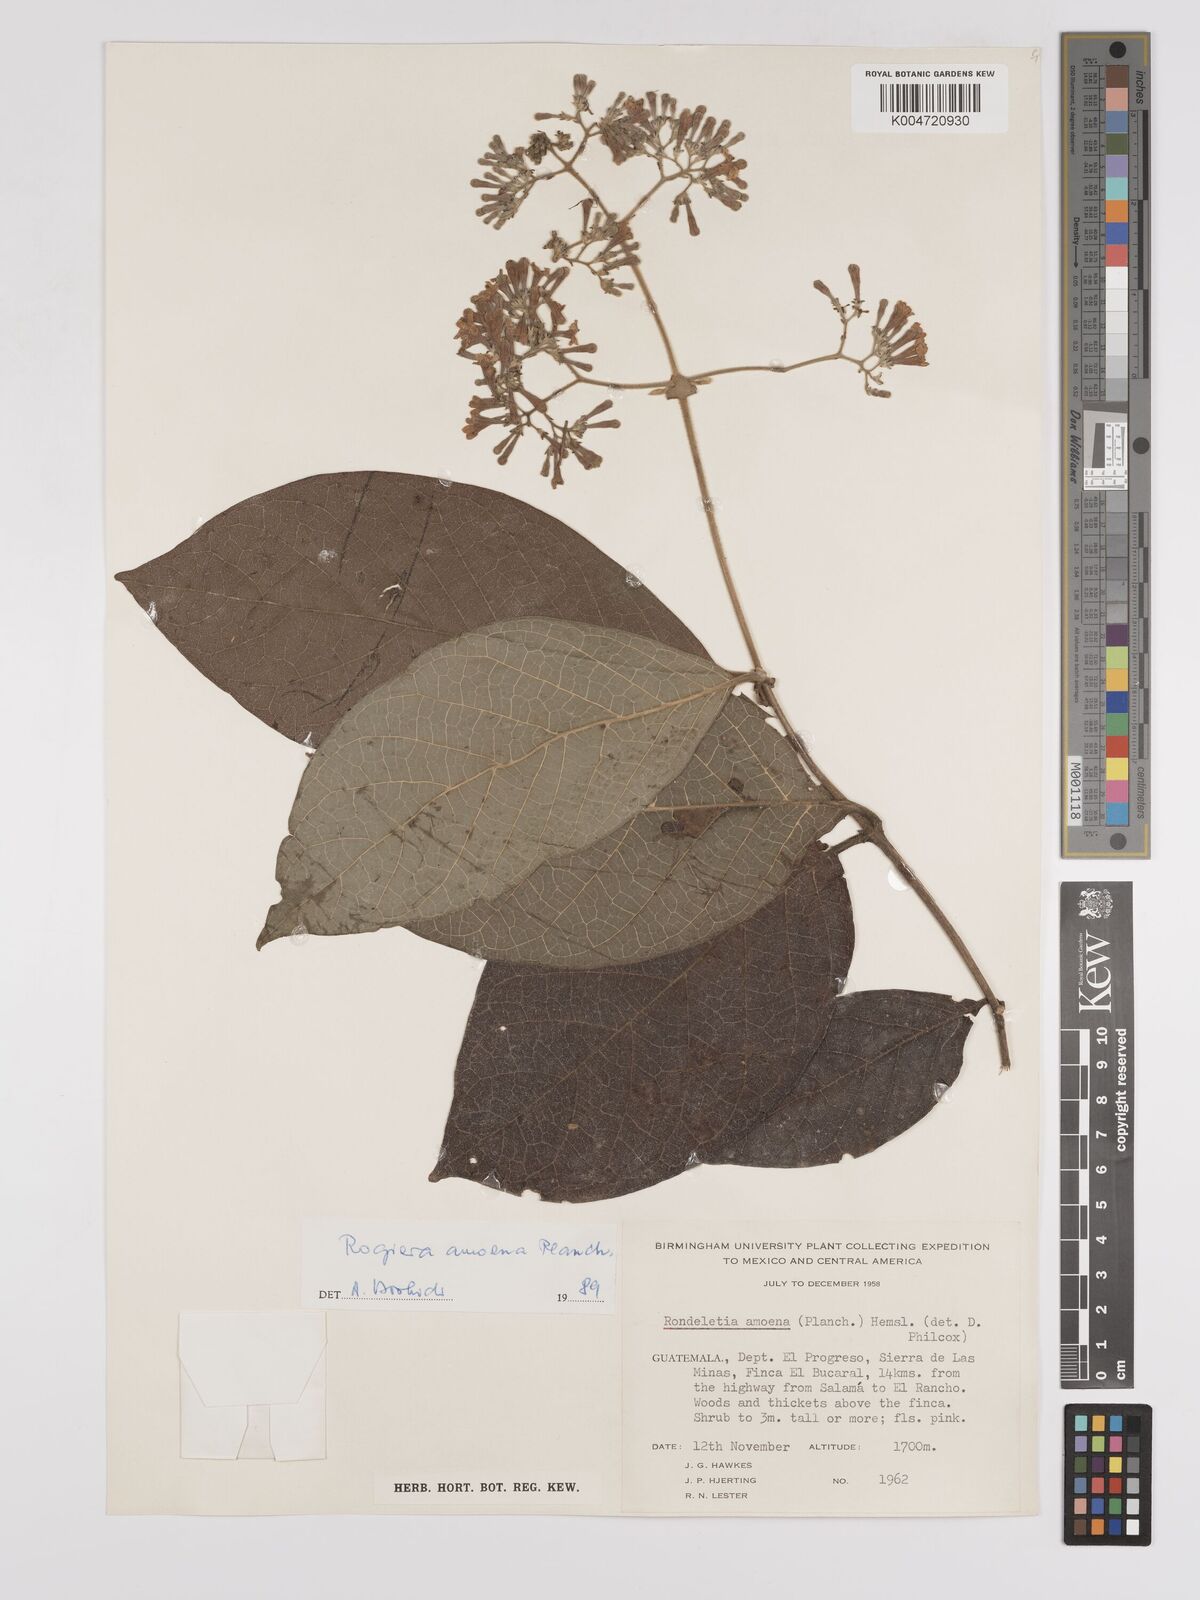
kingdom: Plantae
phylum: Tracheophyta
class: Magnoliopsida
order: Gentianales
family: Rubiaceae
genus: Rogiera
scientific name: Rogiera amoena
